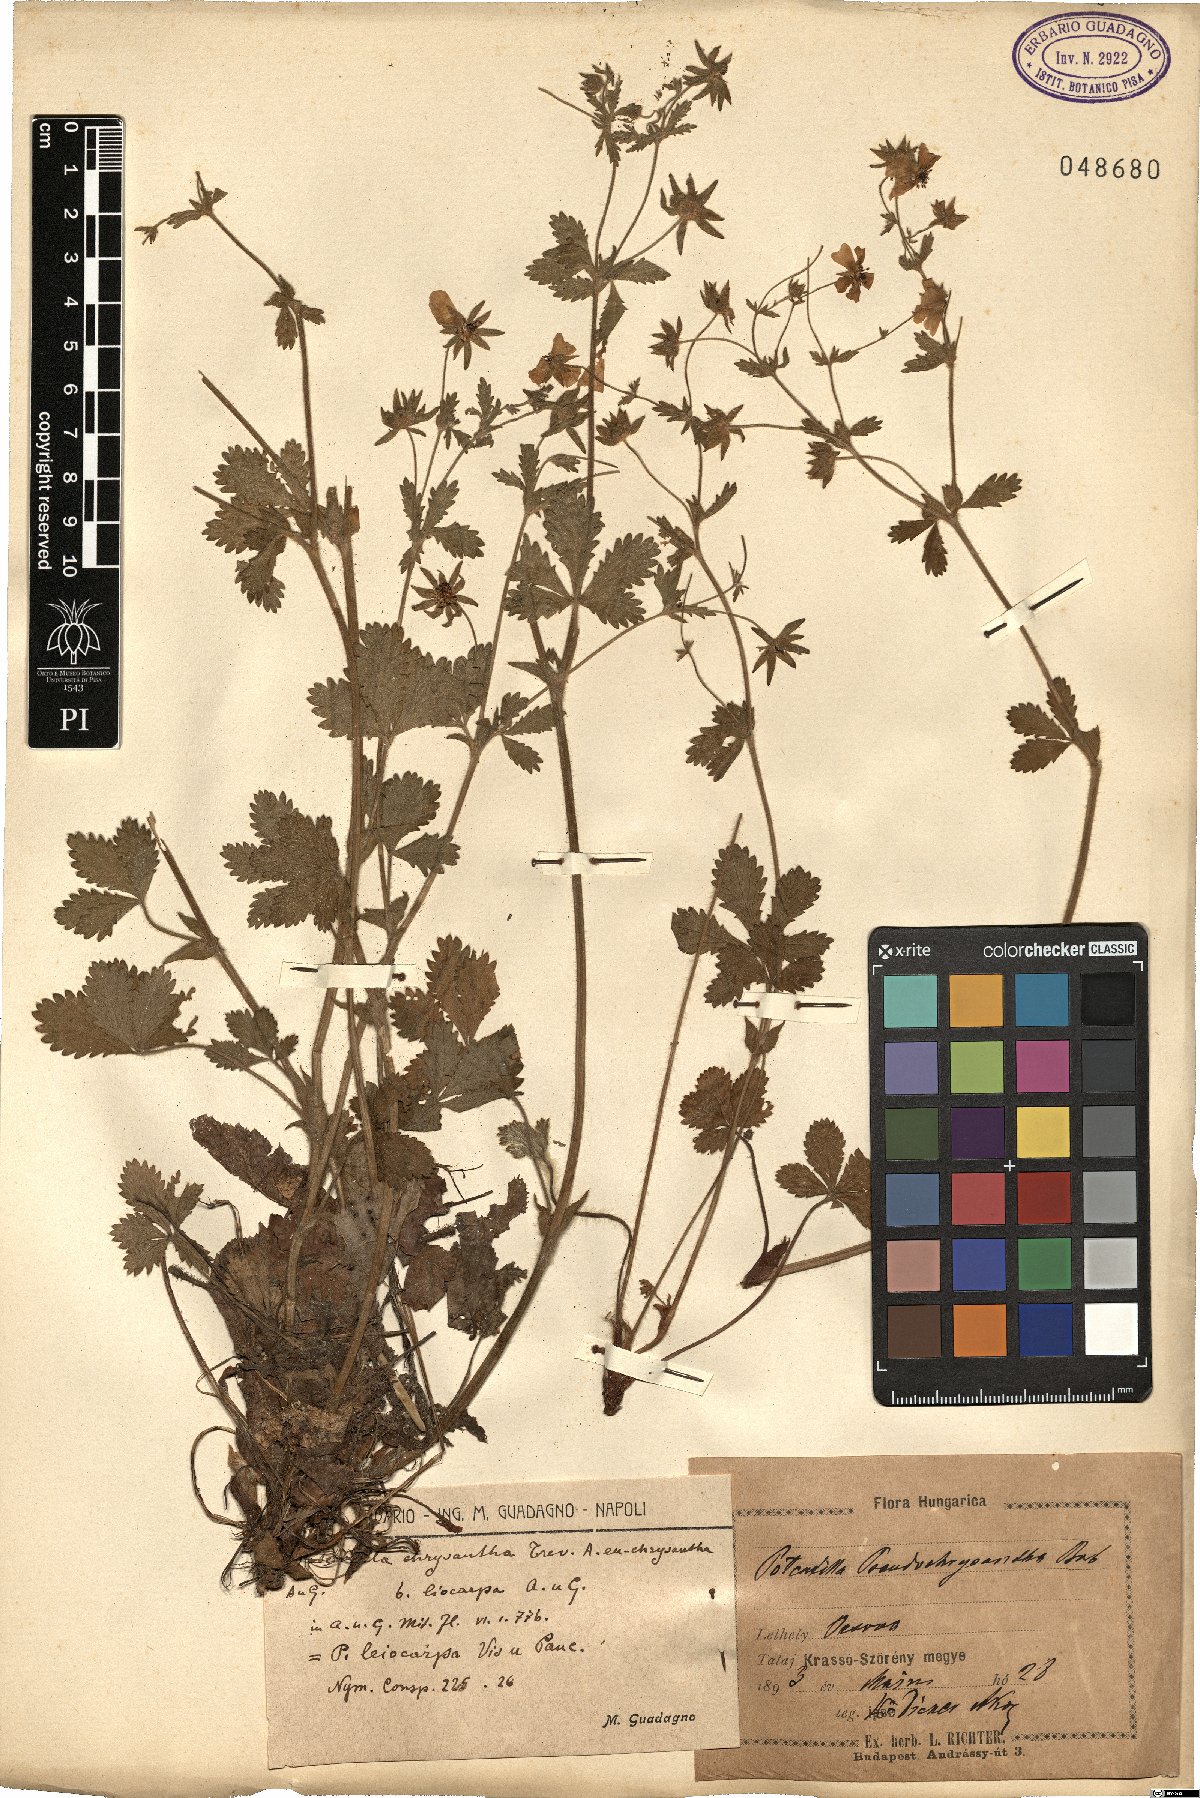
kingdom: Plantae
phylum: Tracheophyta
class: Magnoliopsida
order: Rosales
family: Rosaceae
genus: Potentilla
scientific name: Potentilla chrysantha
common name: Thuringian cinquefoil
